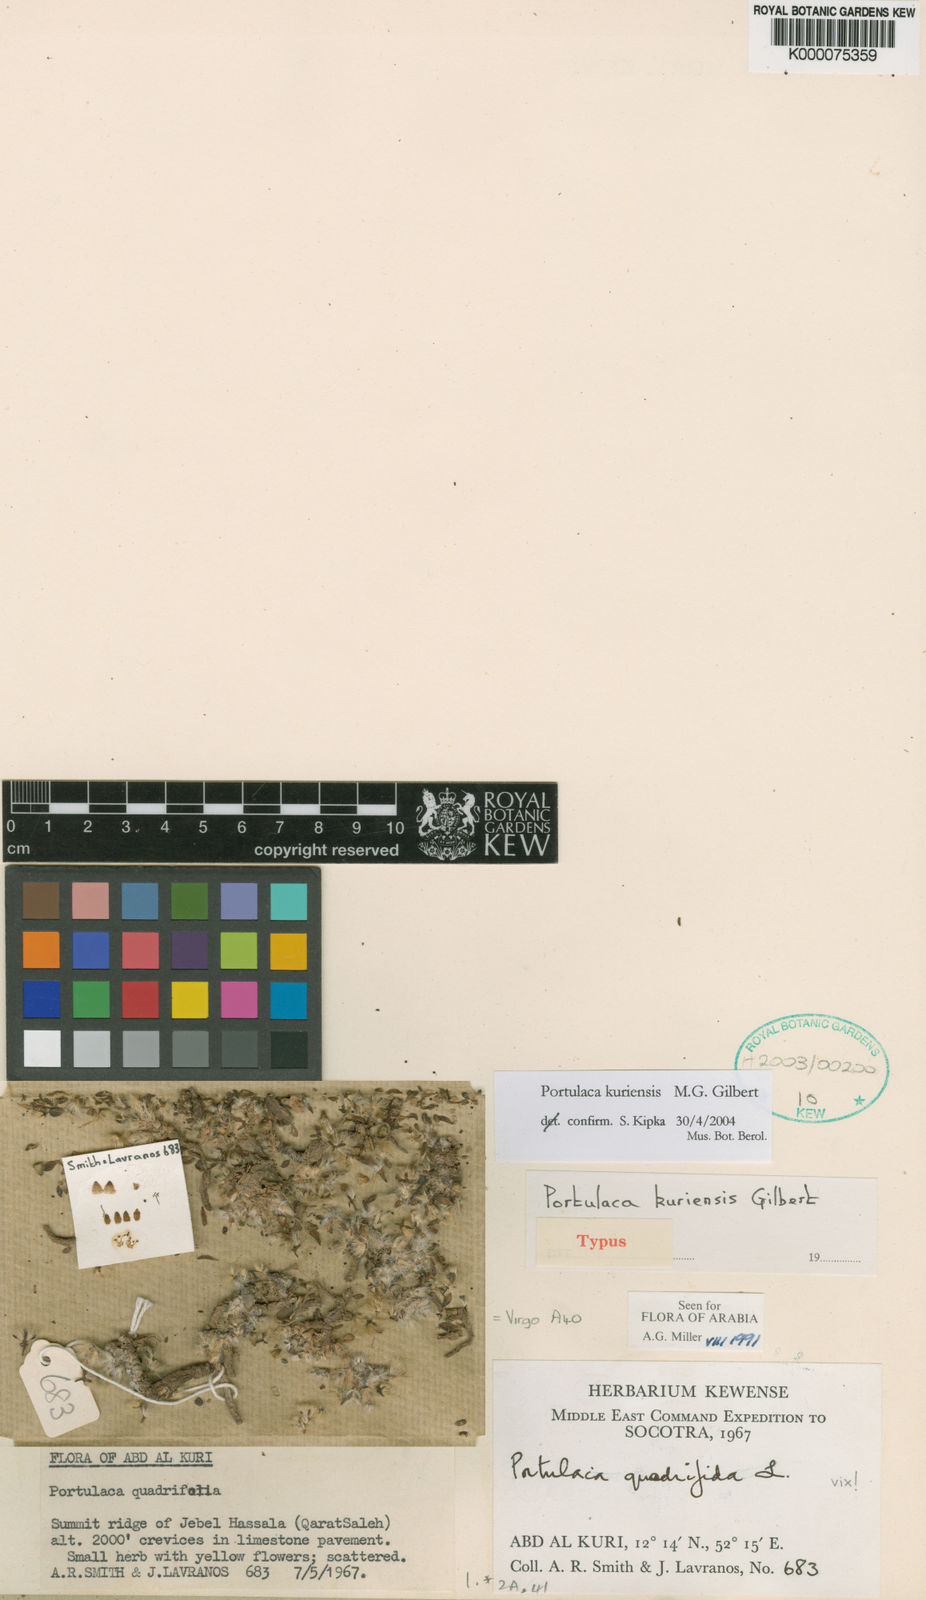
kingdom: Plantae
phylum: Tracheophyta
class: Magnoliopsida
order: Caryophyllales
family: Portulacaceae
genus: Portulaca
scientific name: Portulaca kuriensis
